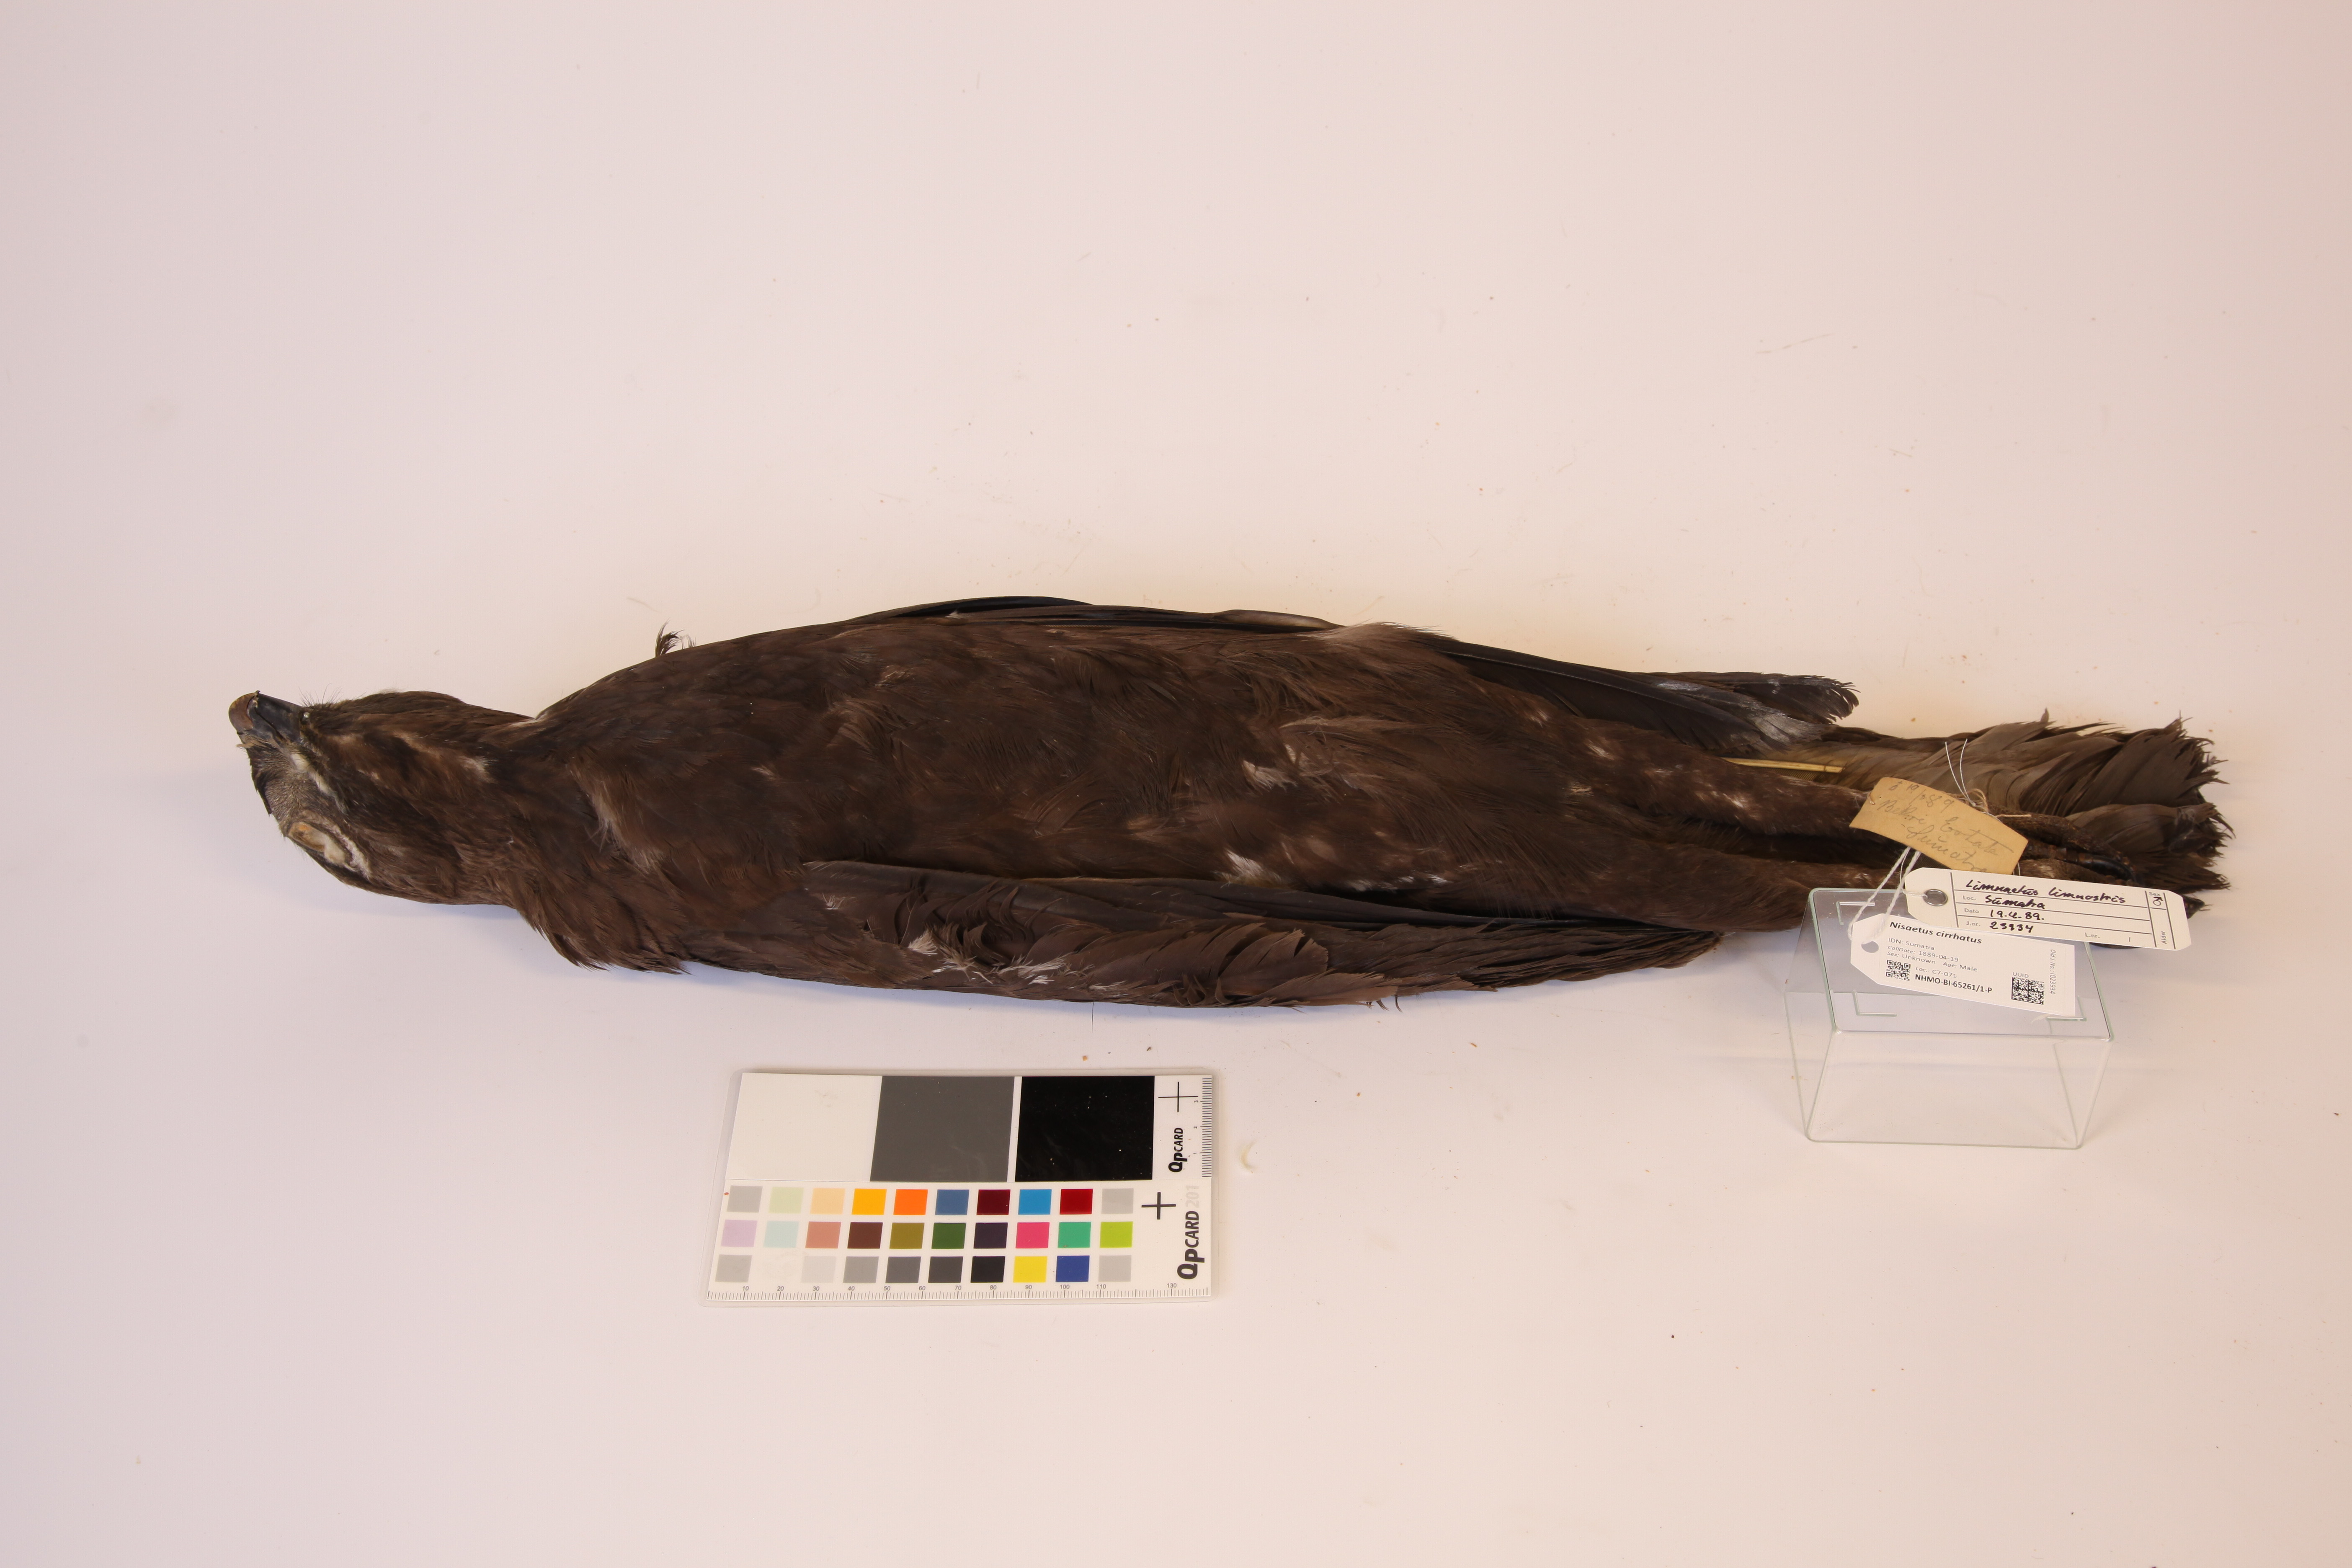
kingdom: Animalia
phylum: Chordata
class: Aves
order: Accipitriformes
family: Accipitridae
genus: Nisaetus
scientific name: Nisaetus cirrhatus
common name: Changeable hawk-eagle
